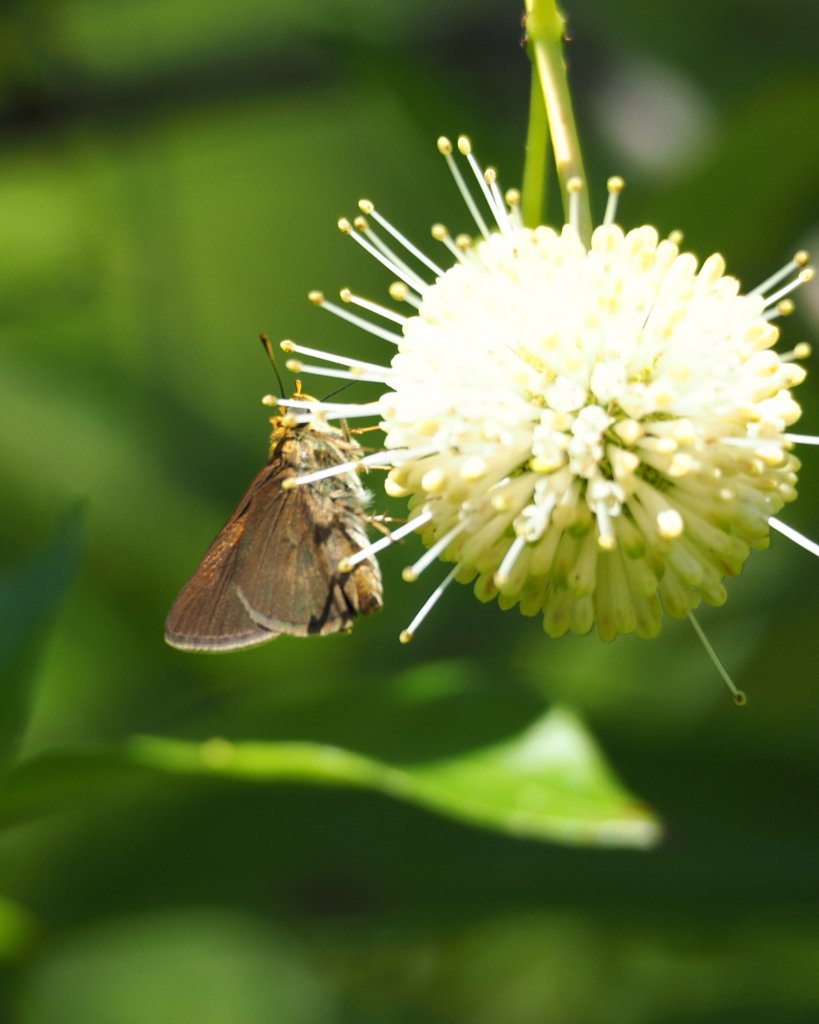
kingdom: Animalia
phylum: Arthropoda
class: Insecta
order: Lepidoptera
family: Hesperiidae
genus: Euphyes
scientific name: Euphyes vestris
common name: Dun Skipper
